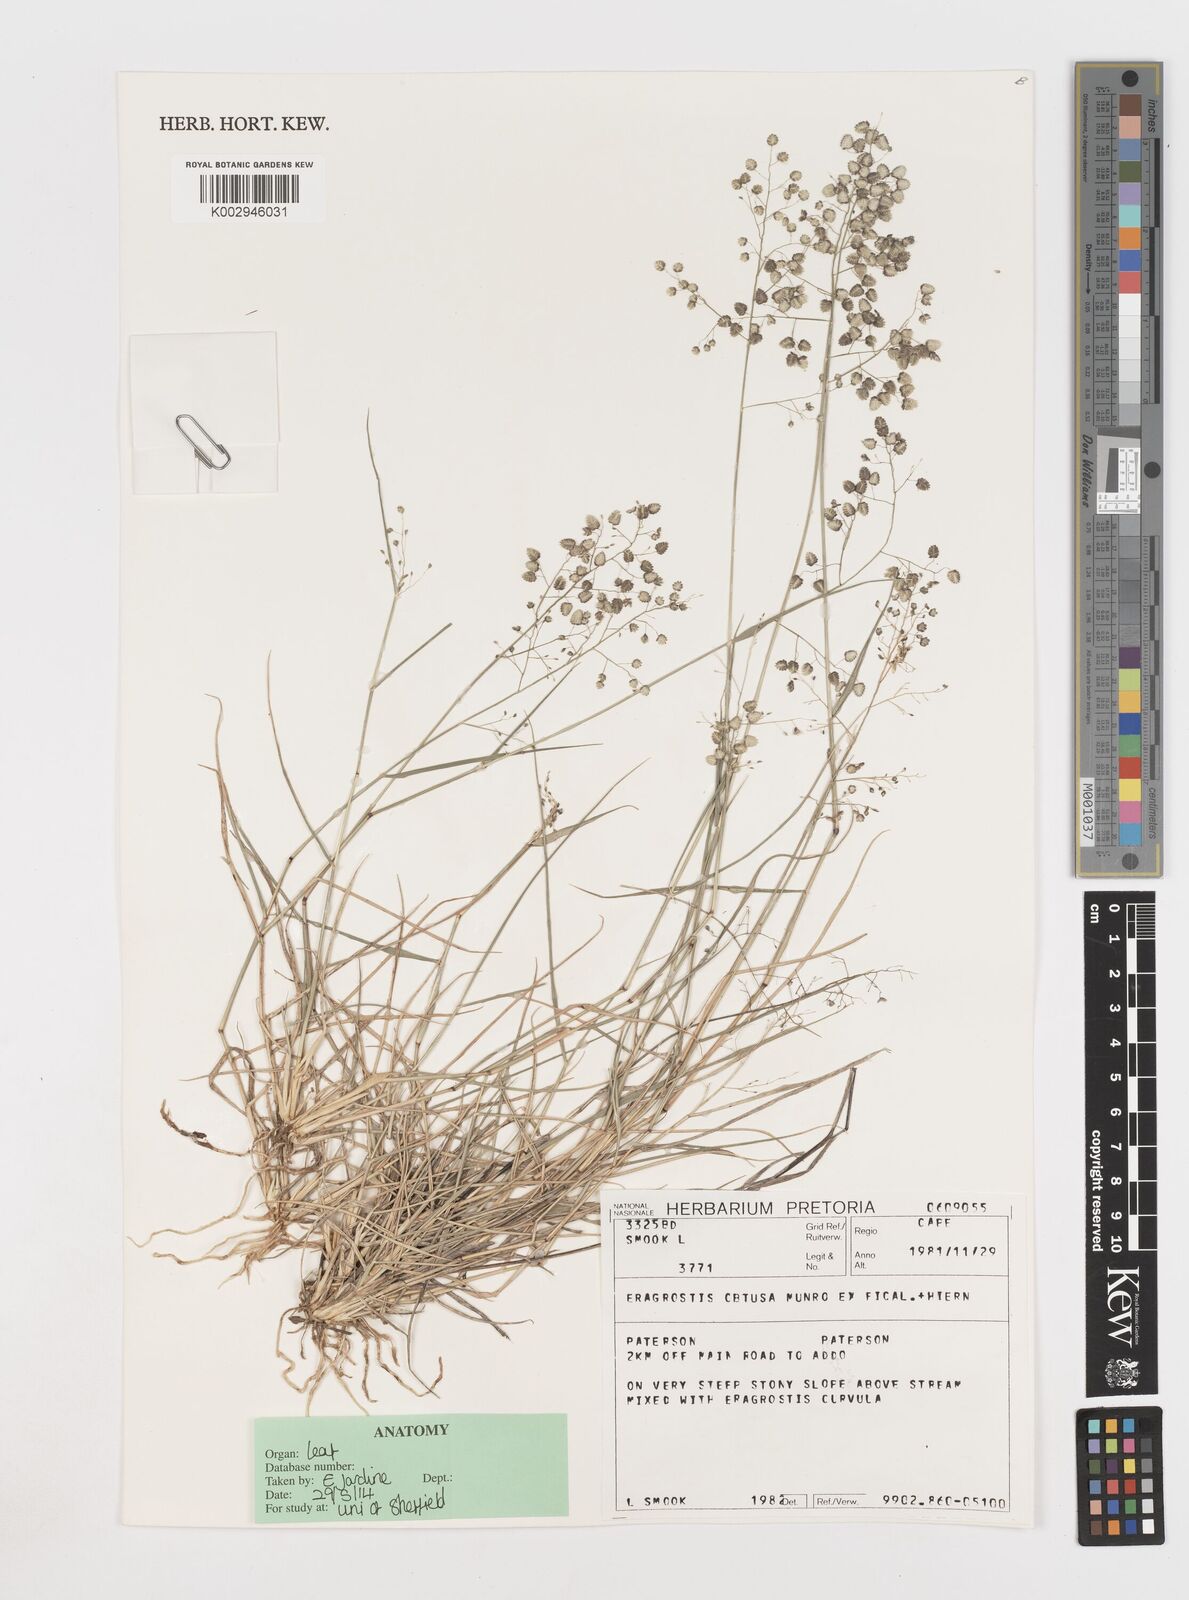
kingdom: Plantae
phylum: Tracheophyta
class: Liliopsida
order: Poales
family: Poaceae
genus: Eragrostis
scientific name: Eragrostis obtusa
